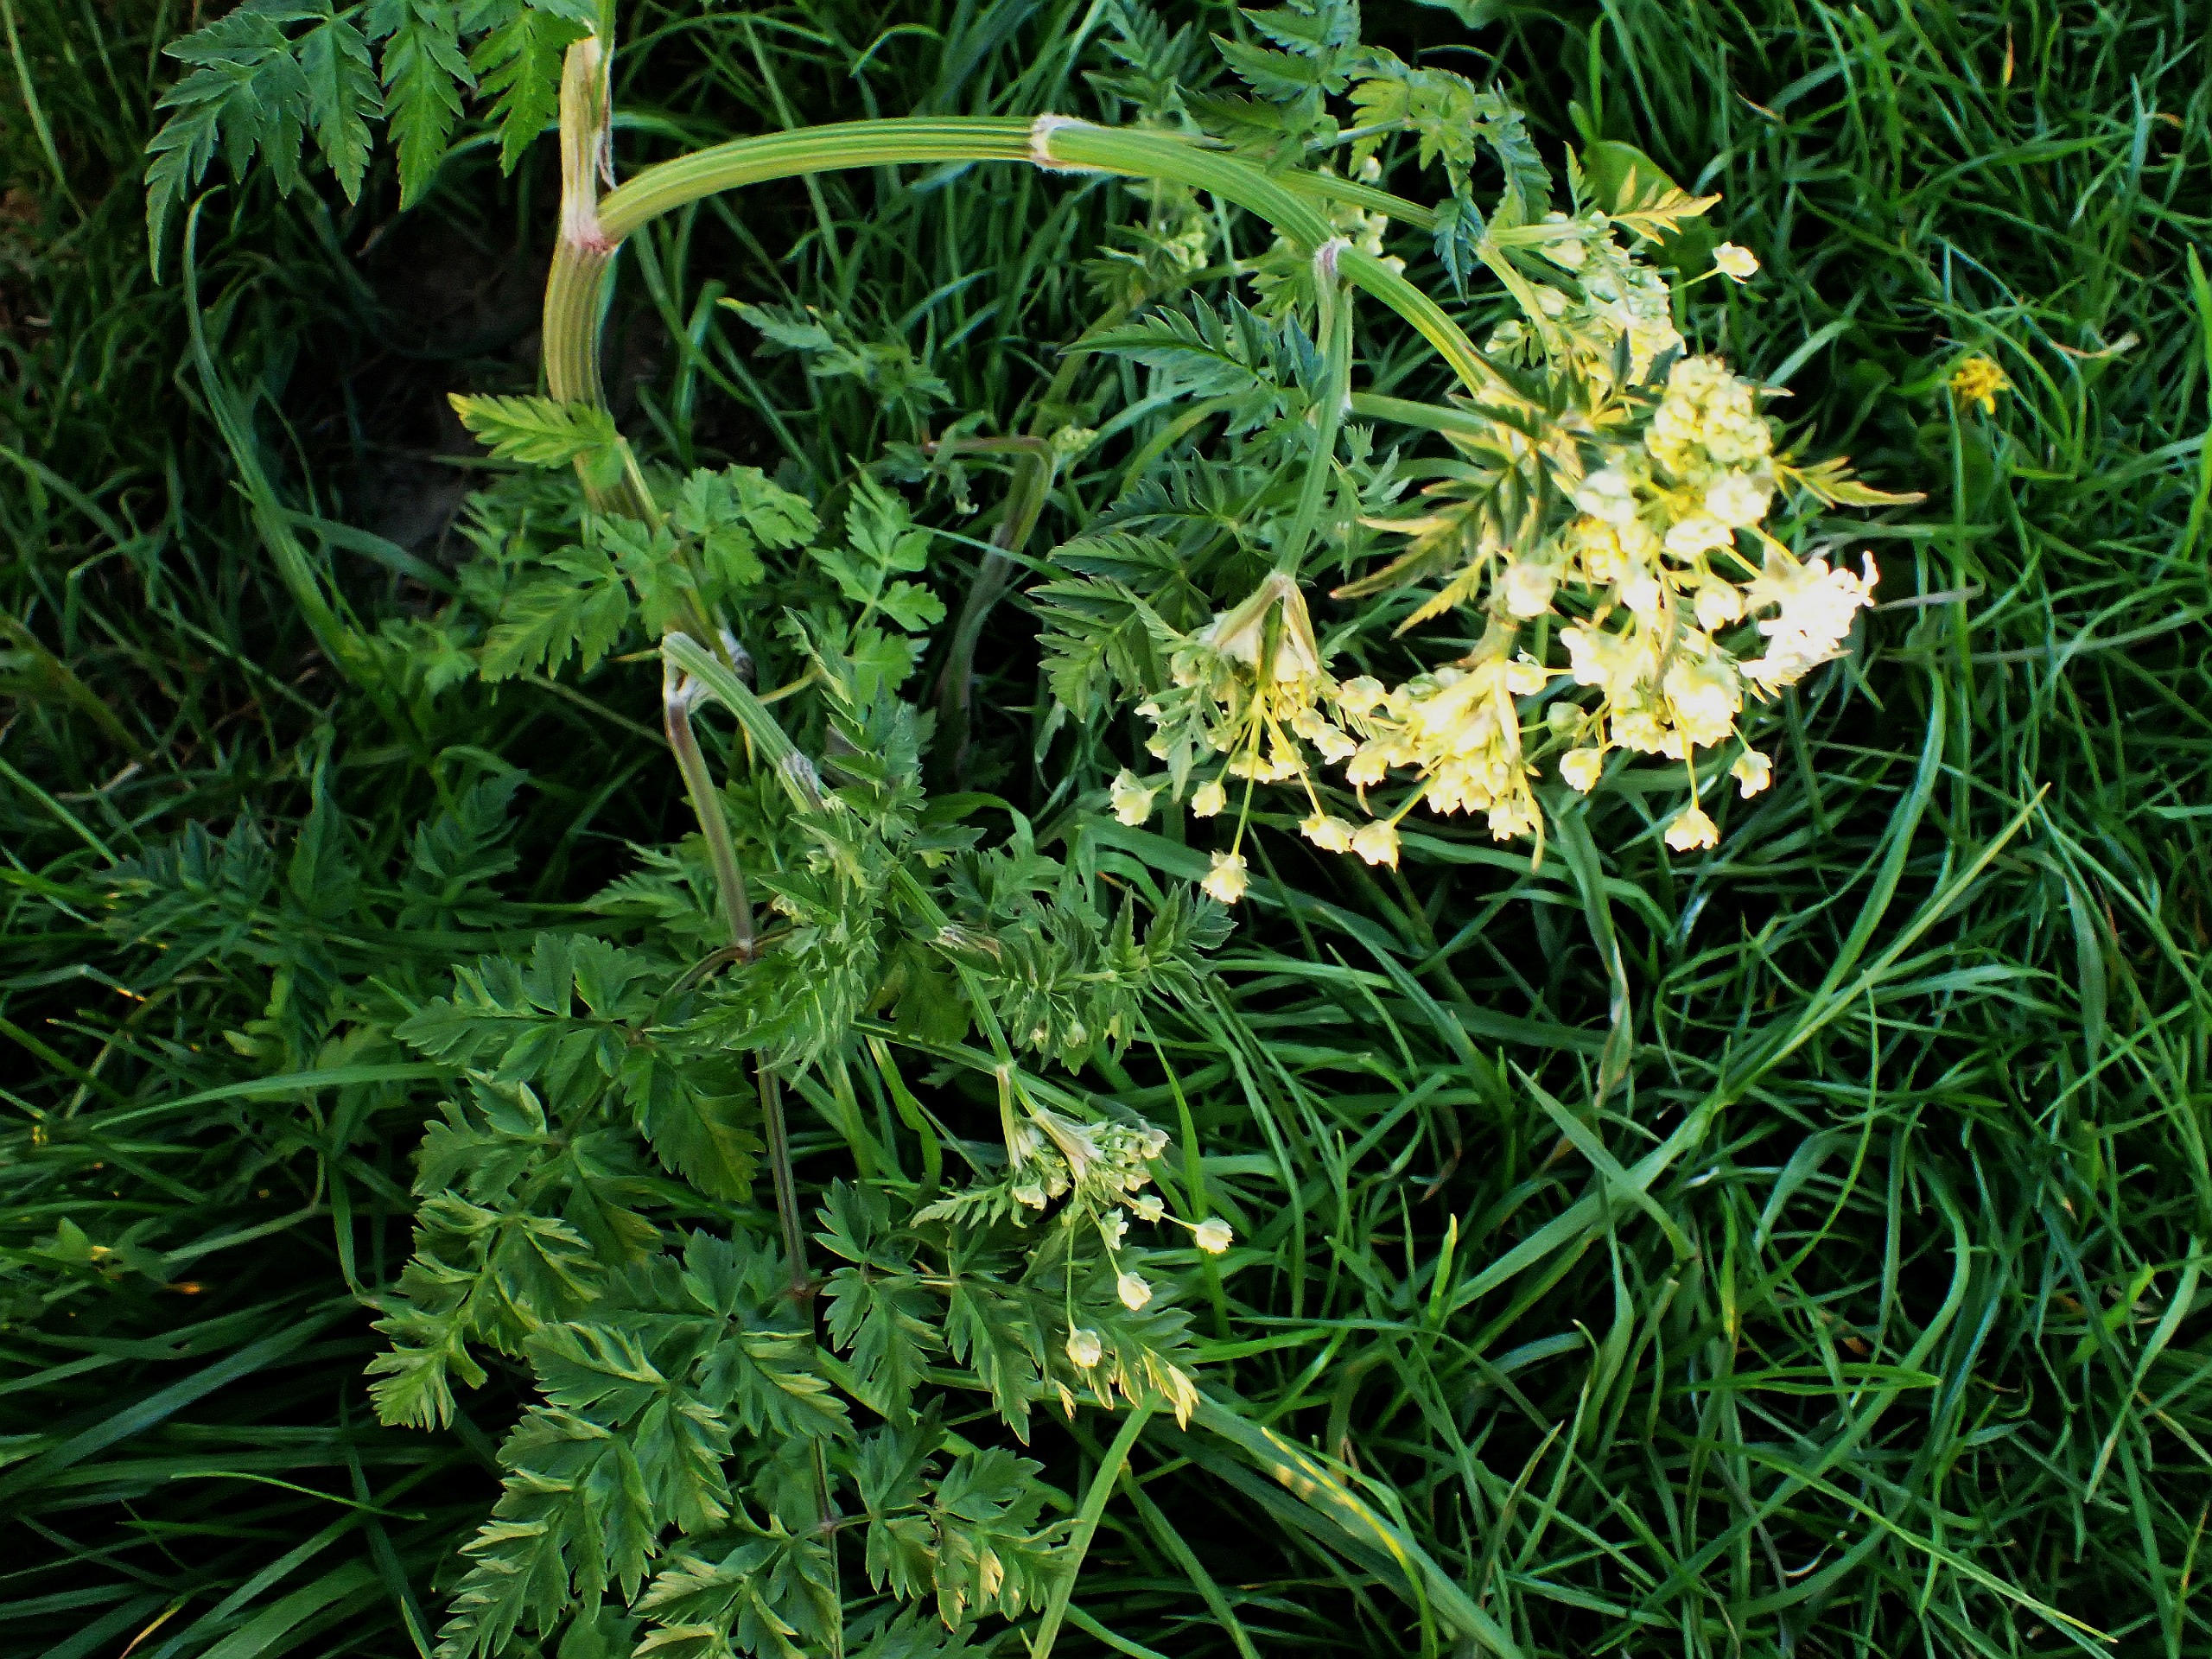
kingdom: Plantae
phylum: Tracheophyta
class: Magnoliopsida
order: Apiales
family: Apiaceae
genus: Anthriscus
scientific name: Anthriscus sylvestris
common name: Vild kørvel
